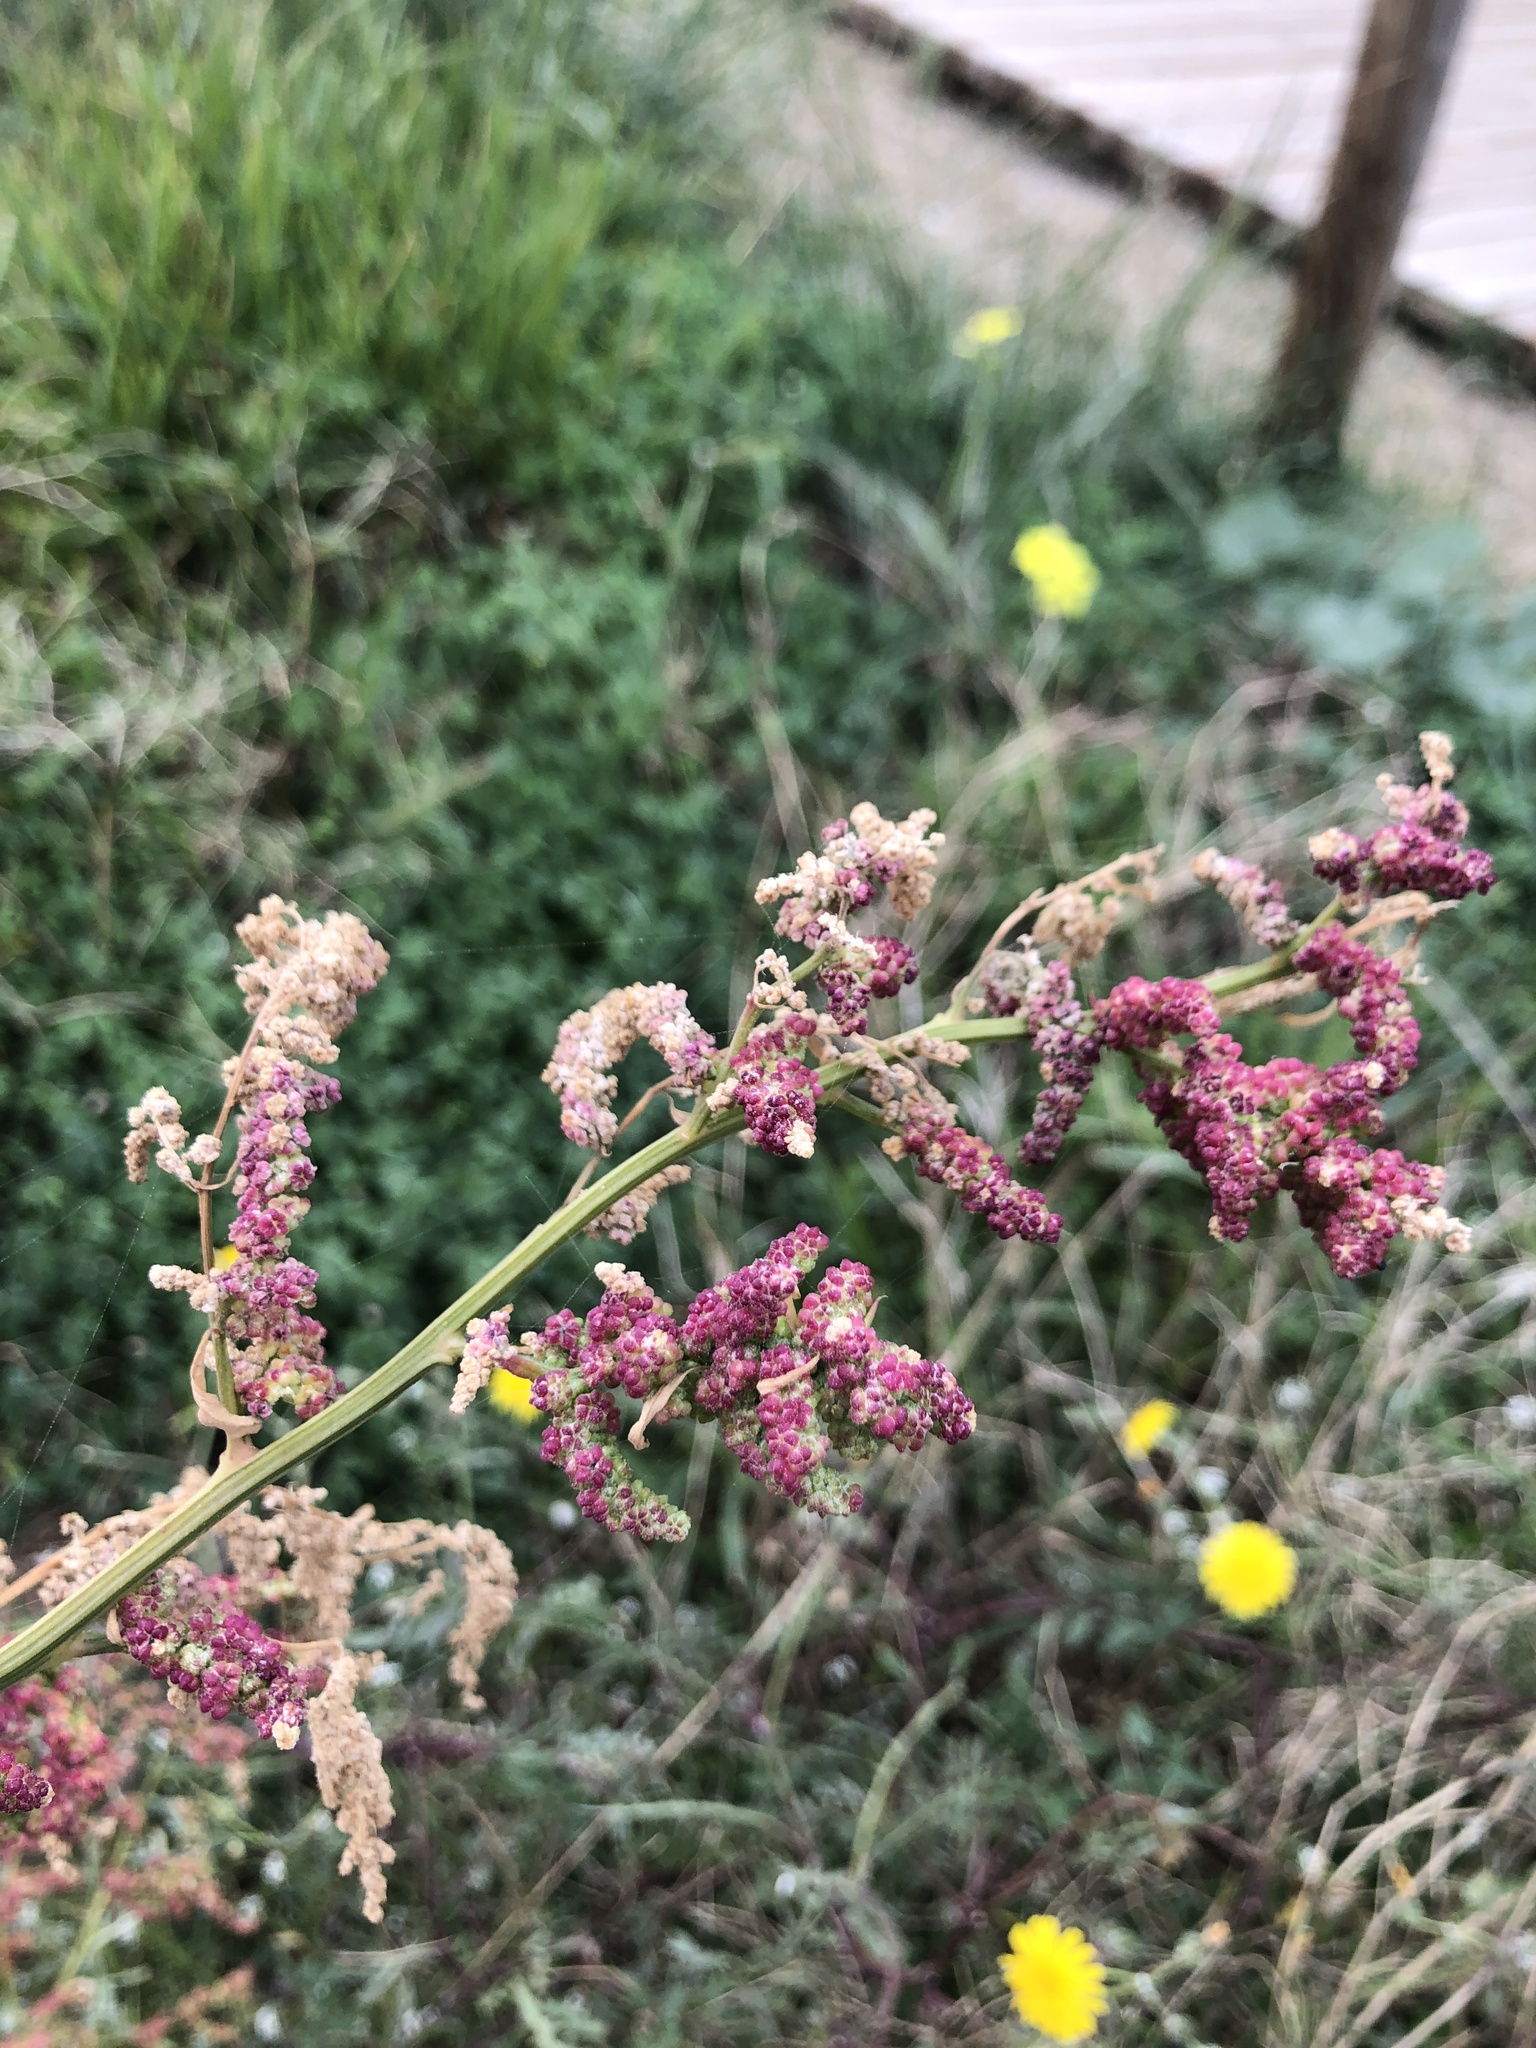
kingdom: Plantae
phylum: Tracheophyta
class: Magnoliopsida
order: Caryophyllales
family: Amaranthaceae
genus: Bassia
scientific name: Bassia scoparia
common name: Belvedere
